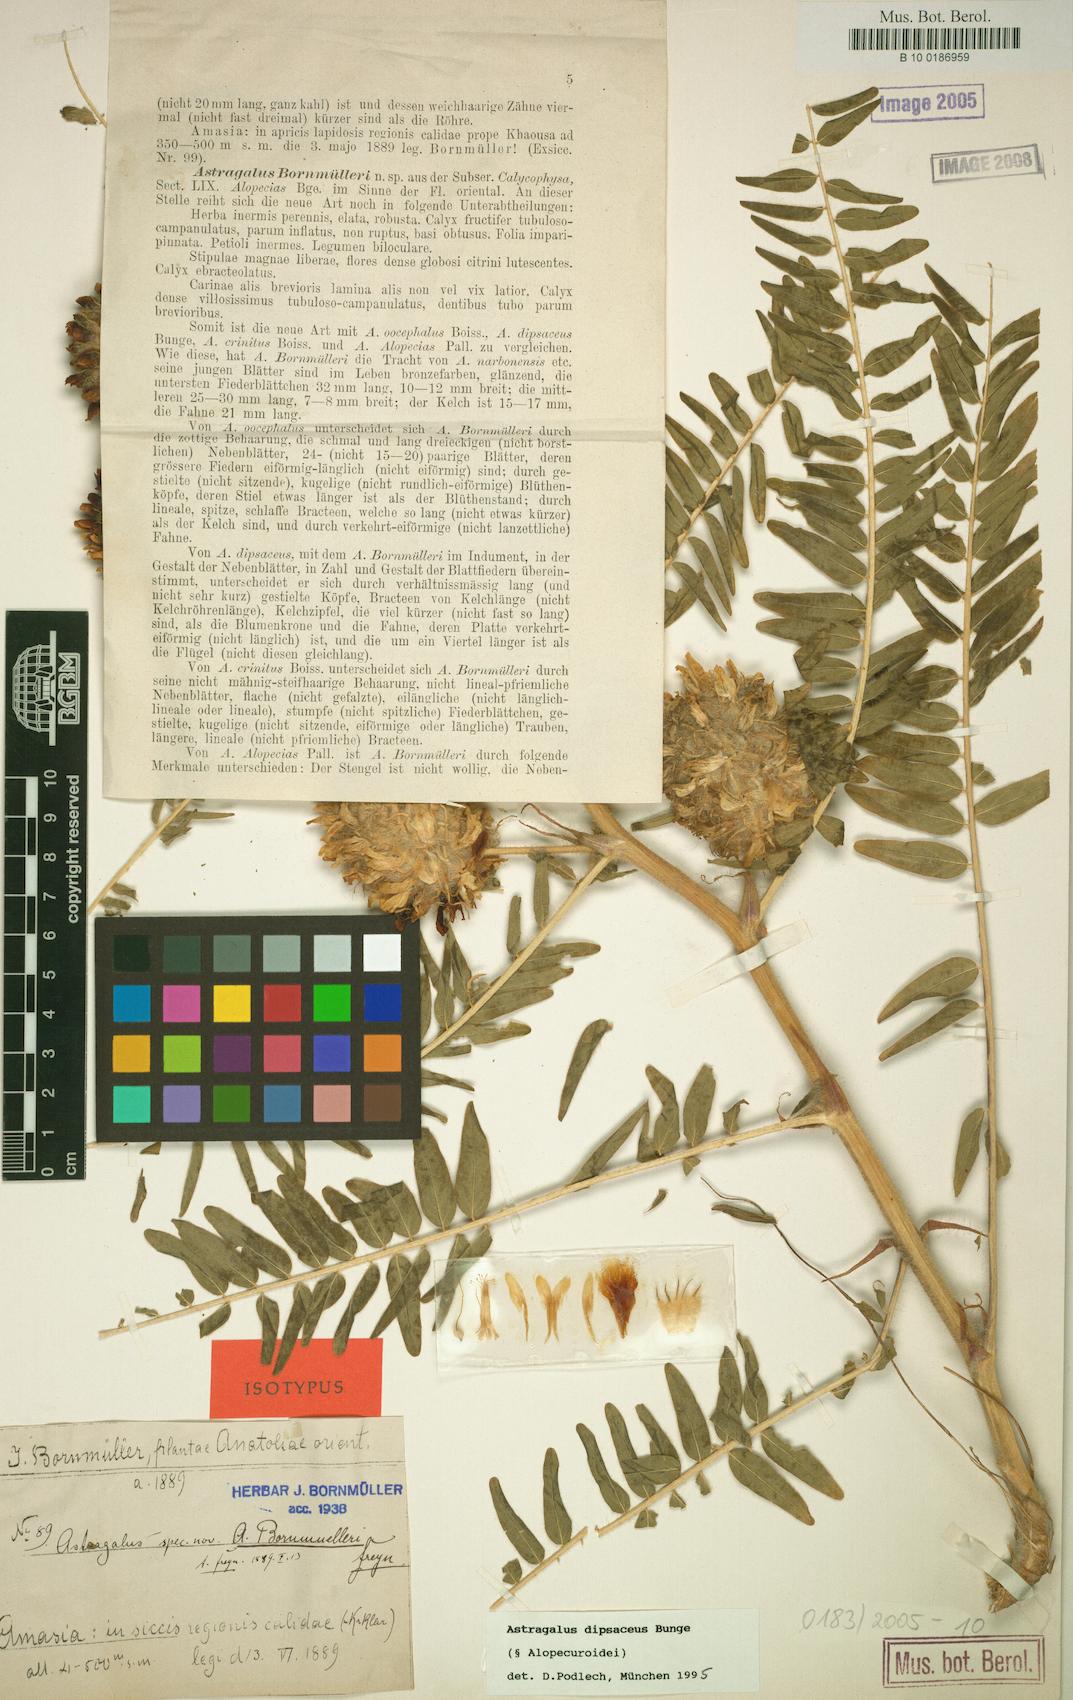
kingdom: Plantae
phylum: Tracheophyta
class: Magnoliopsida
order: Fabales
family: Fabaceae
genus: Astragalus
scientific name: Astragalus dipsaceus
